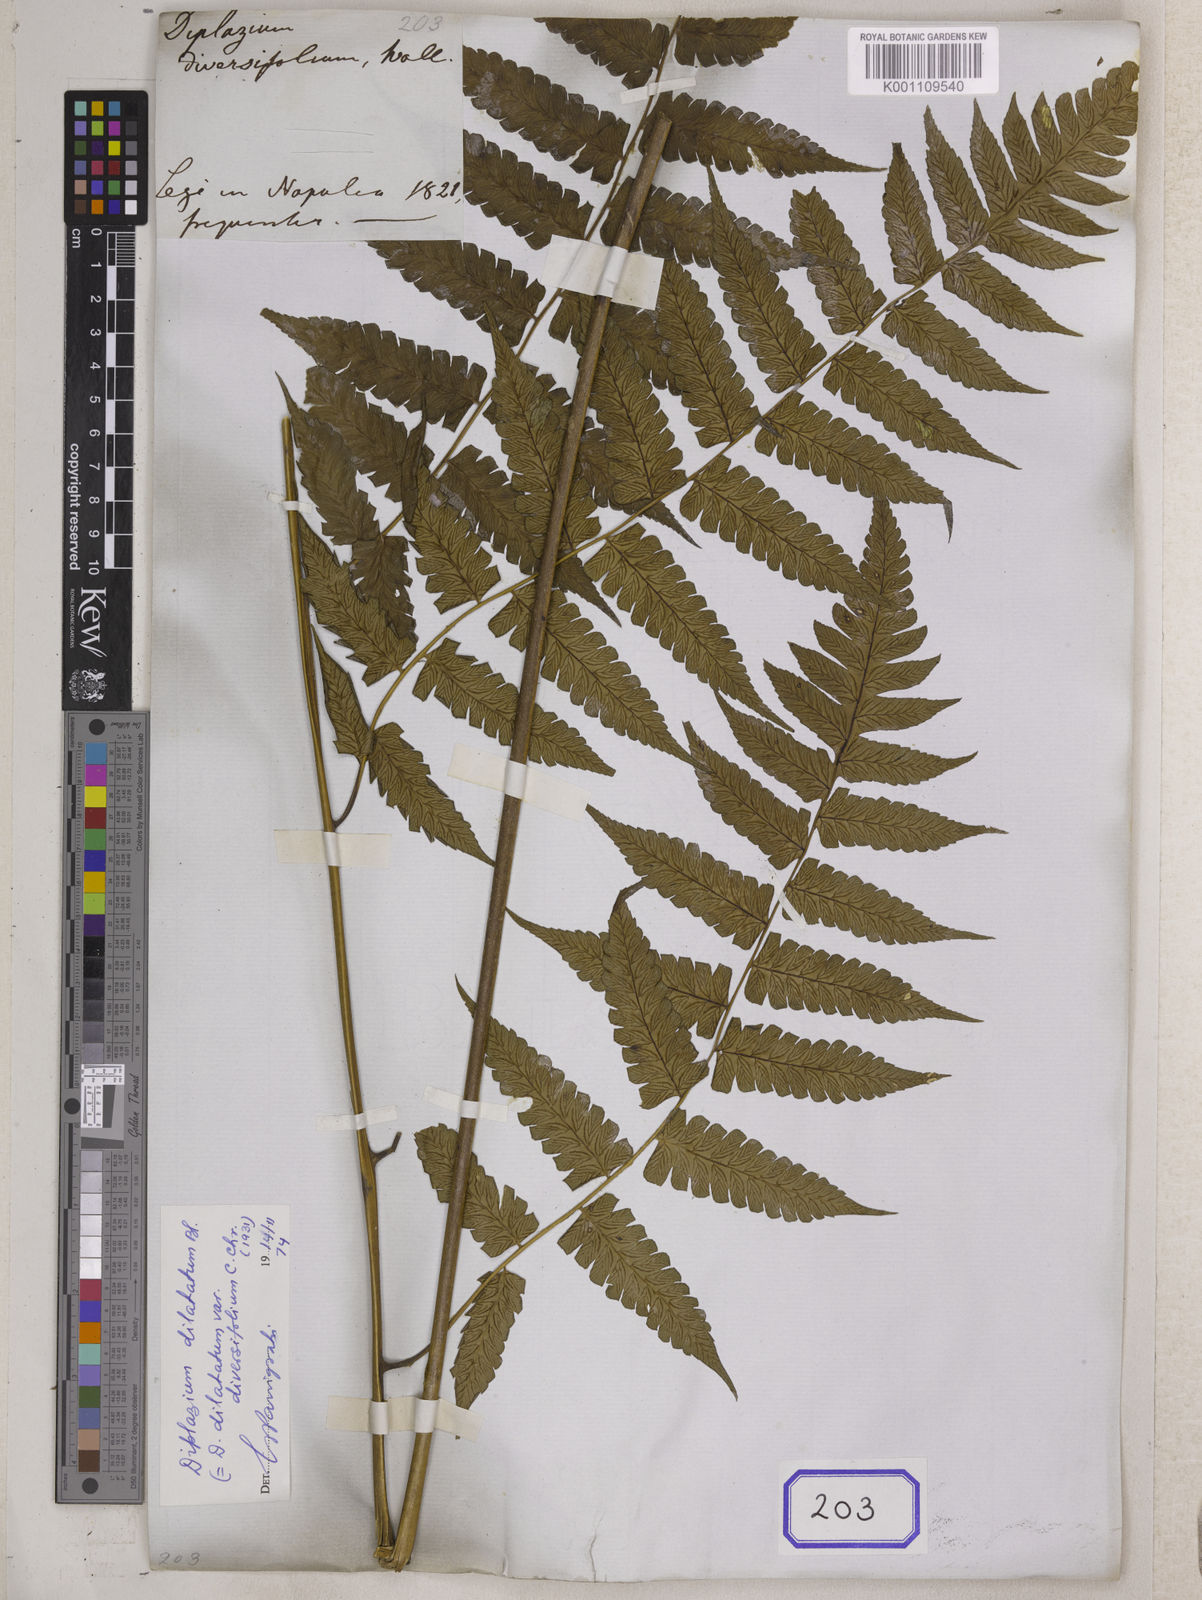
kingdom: Plantae
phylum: Tracheophyta
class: Polypodiopsida
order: Polypodiales
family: Athyriaceae
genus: Diplazium
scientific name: Diplazium maximum
